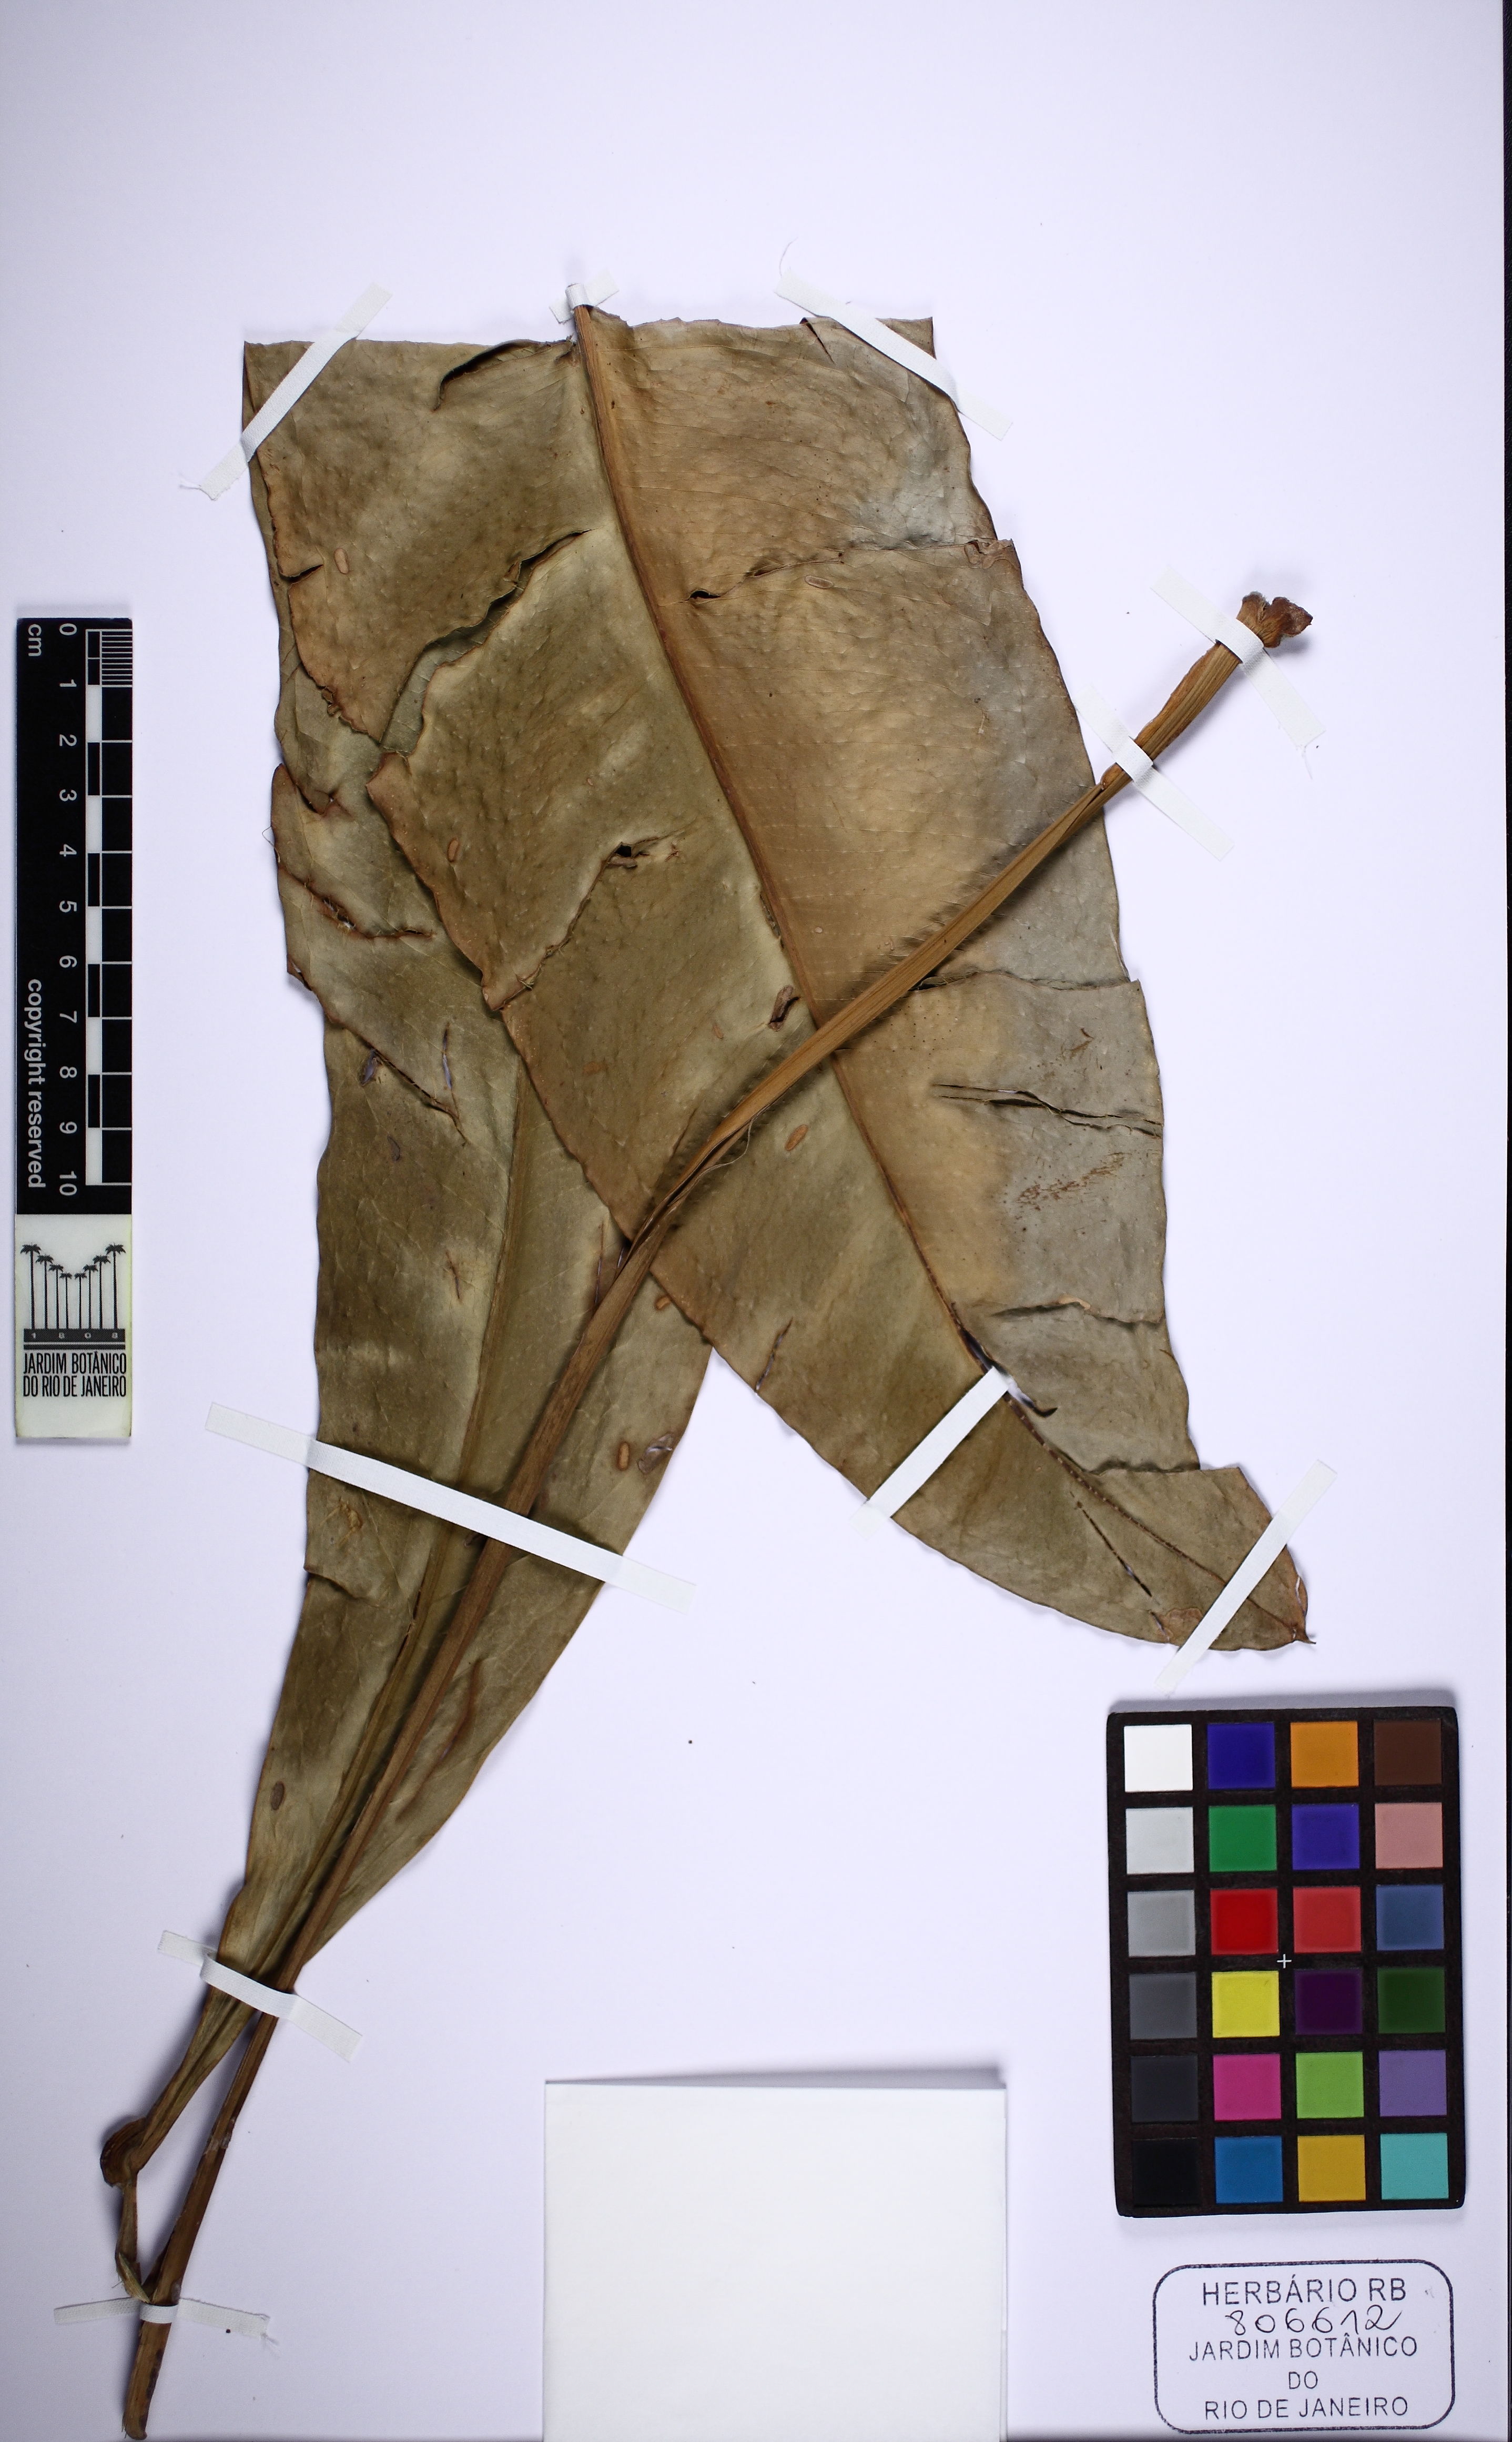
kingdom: Plantae
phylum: Tracheophyta
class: Liliopsida
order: Alismatales
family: Araceae
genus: Anthurium
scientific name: Anthurium
